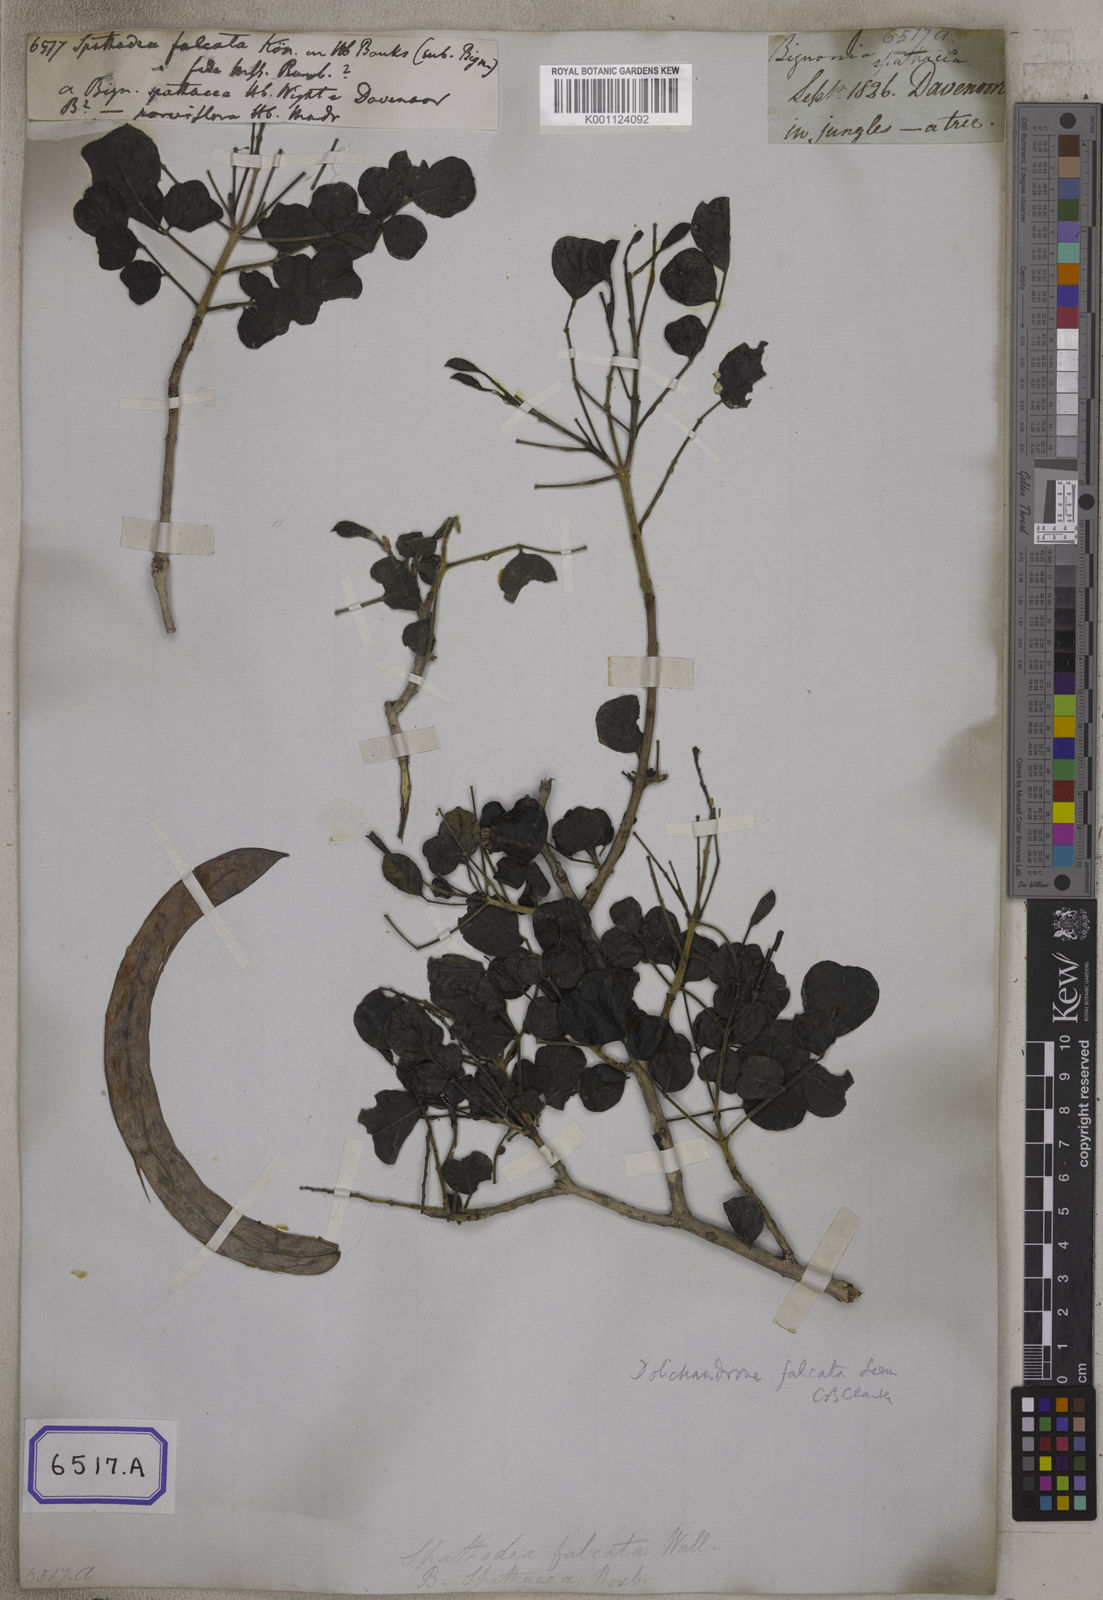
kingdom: Plantae
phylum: Tracheophyta
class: Magnoliopsida
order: Lamiales
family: Bignoniaceae
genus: Spathodea
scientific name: Spathodea
